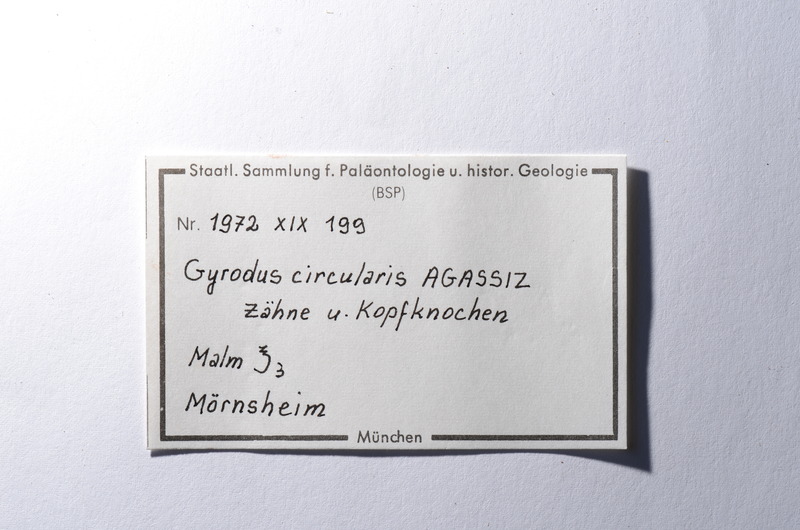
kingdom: Animalia
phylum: Chordata
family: Gyrodontidae
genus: Gyrodus
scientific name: Gyrodus circularis
